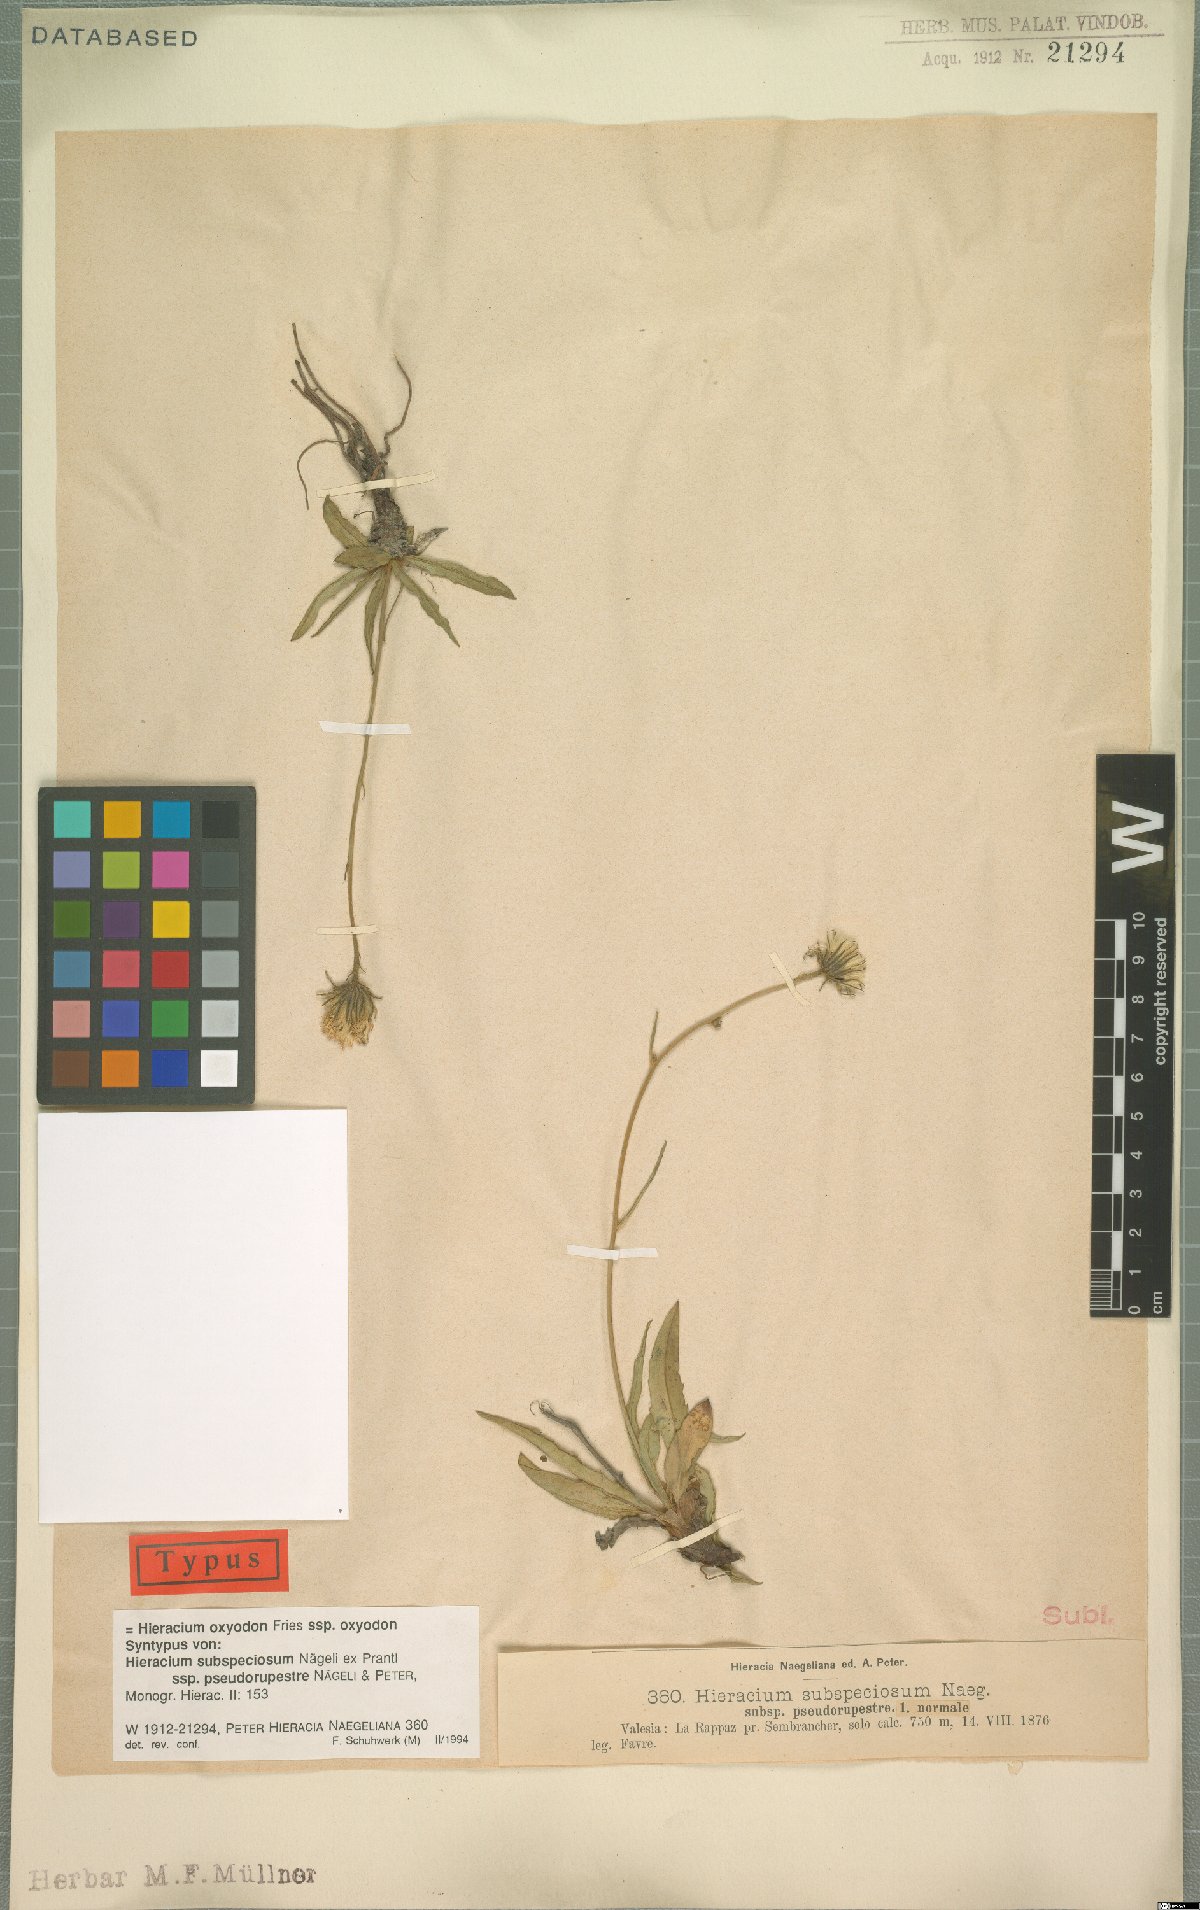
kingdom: Plantae
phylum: Tracheophyta
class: Magnoliopsida
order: Asterales
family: Asteraceae
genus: Hieracium
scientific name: Hieracium oxyodon
